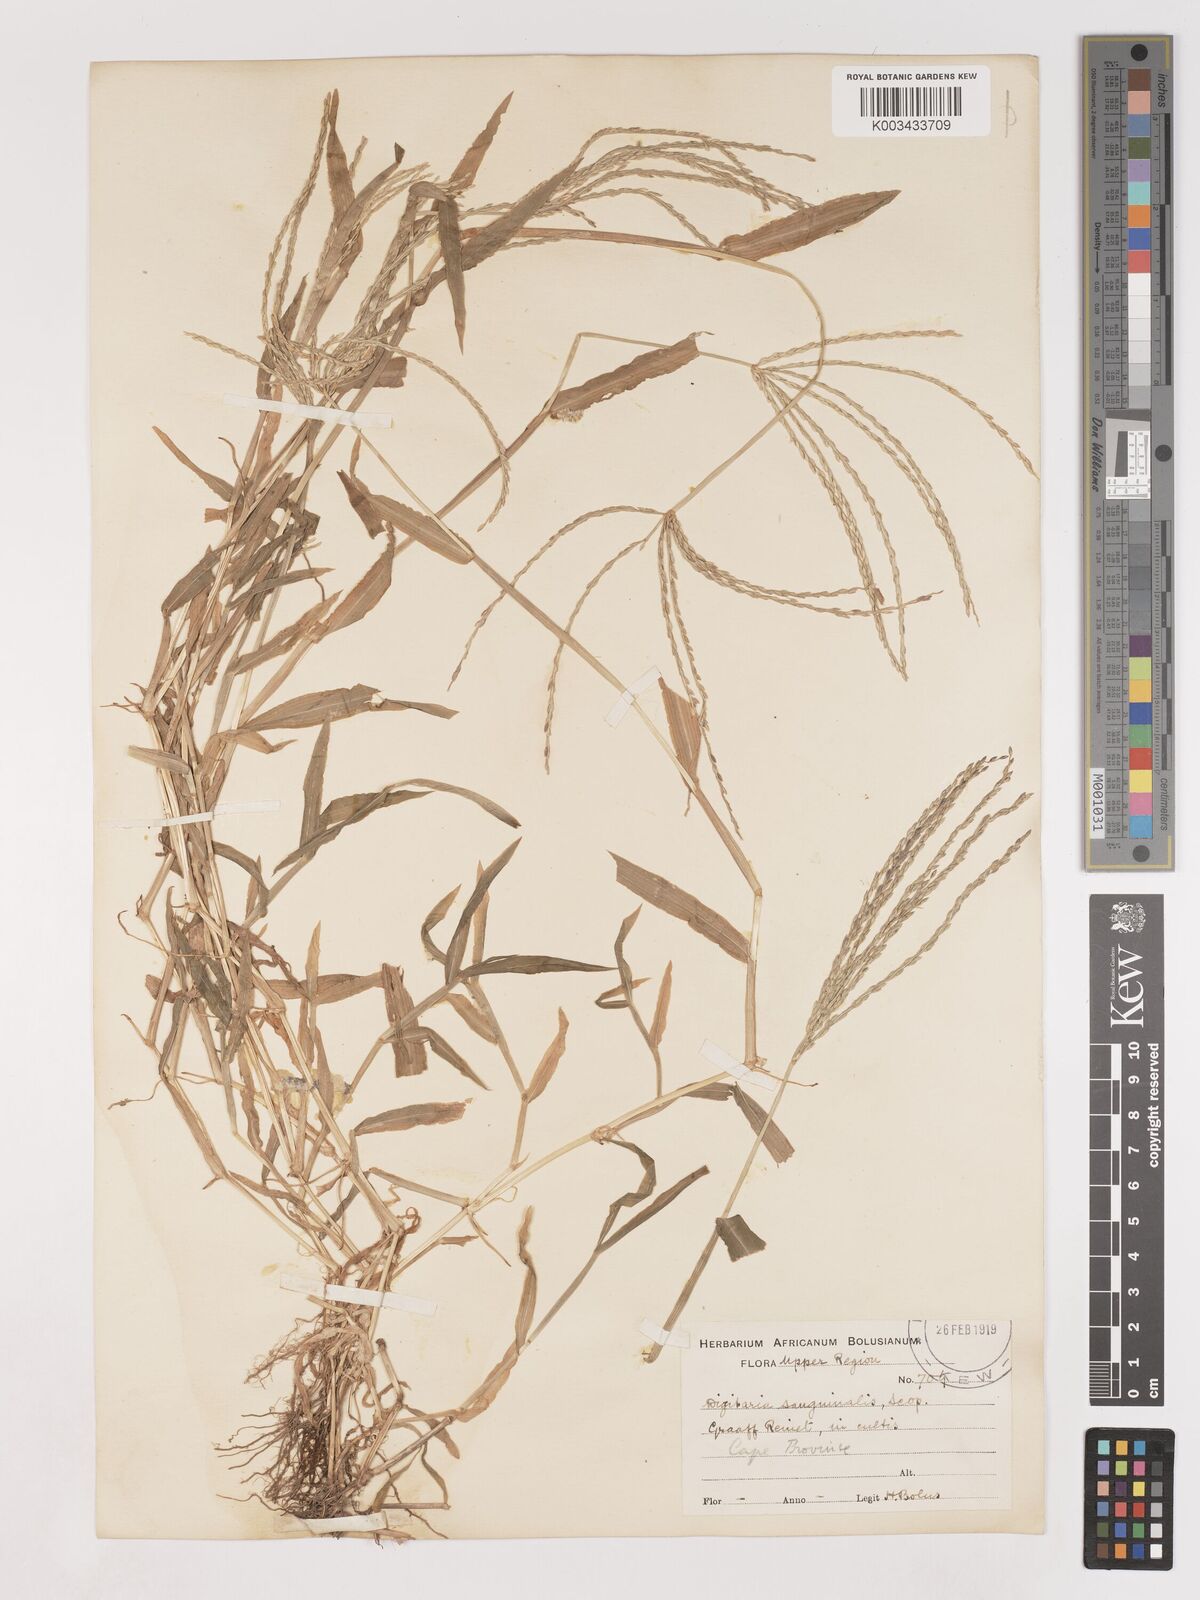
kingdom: Plantae
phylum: Tracheophyta
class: Liliopsida
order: Poales
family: Poaceae
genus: Digitaria
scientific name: Digitaria sanguinalis
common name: Hairy crabgrass
